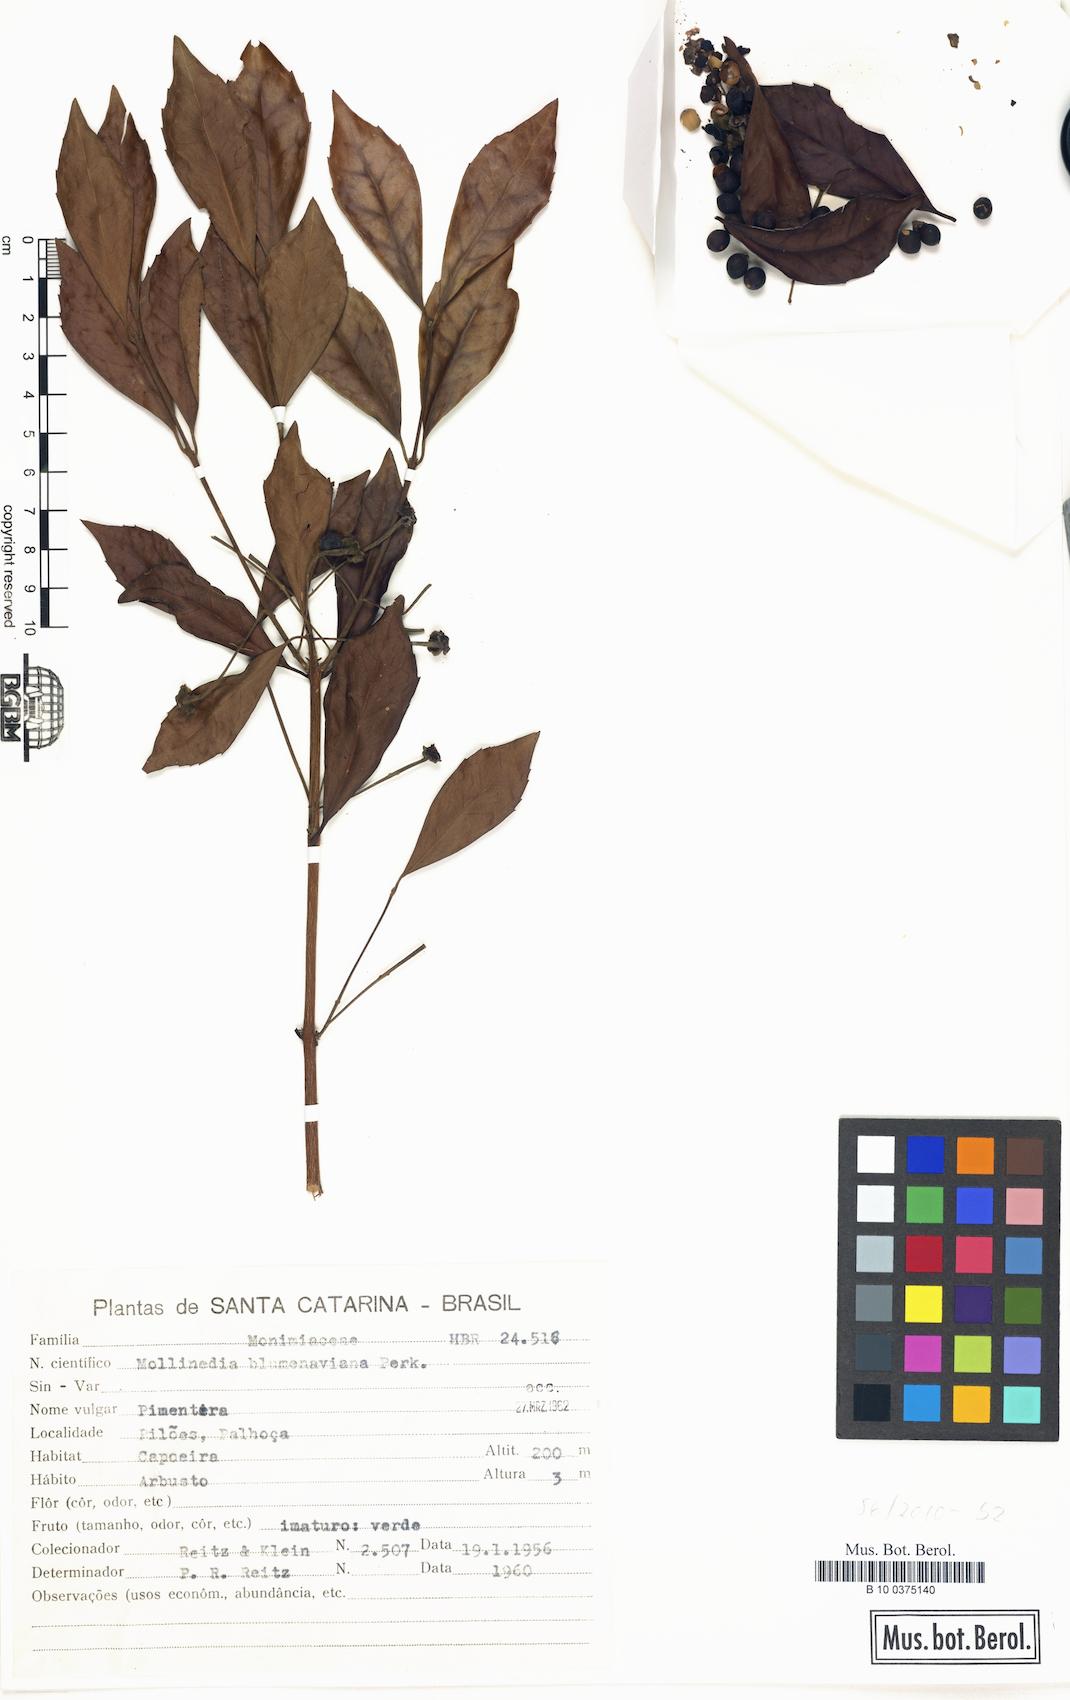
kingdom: Plantae
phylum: Tracheophyta
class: Magnoliopsida
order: Laurales
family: Monimiaceae
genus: Mollinedia
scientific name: Mollinedia clavigera
